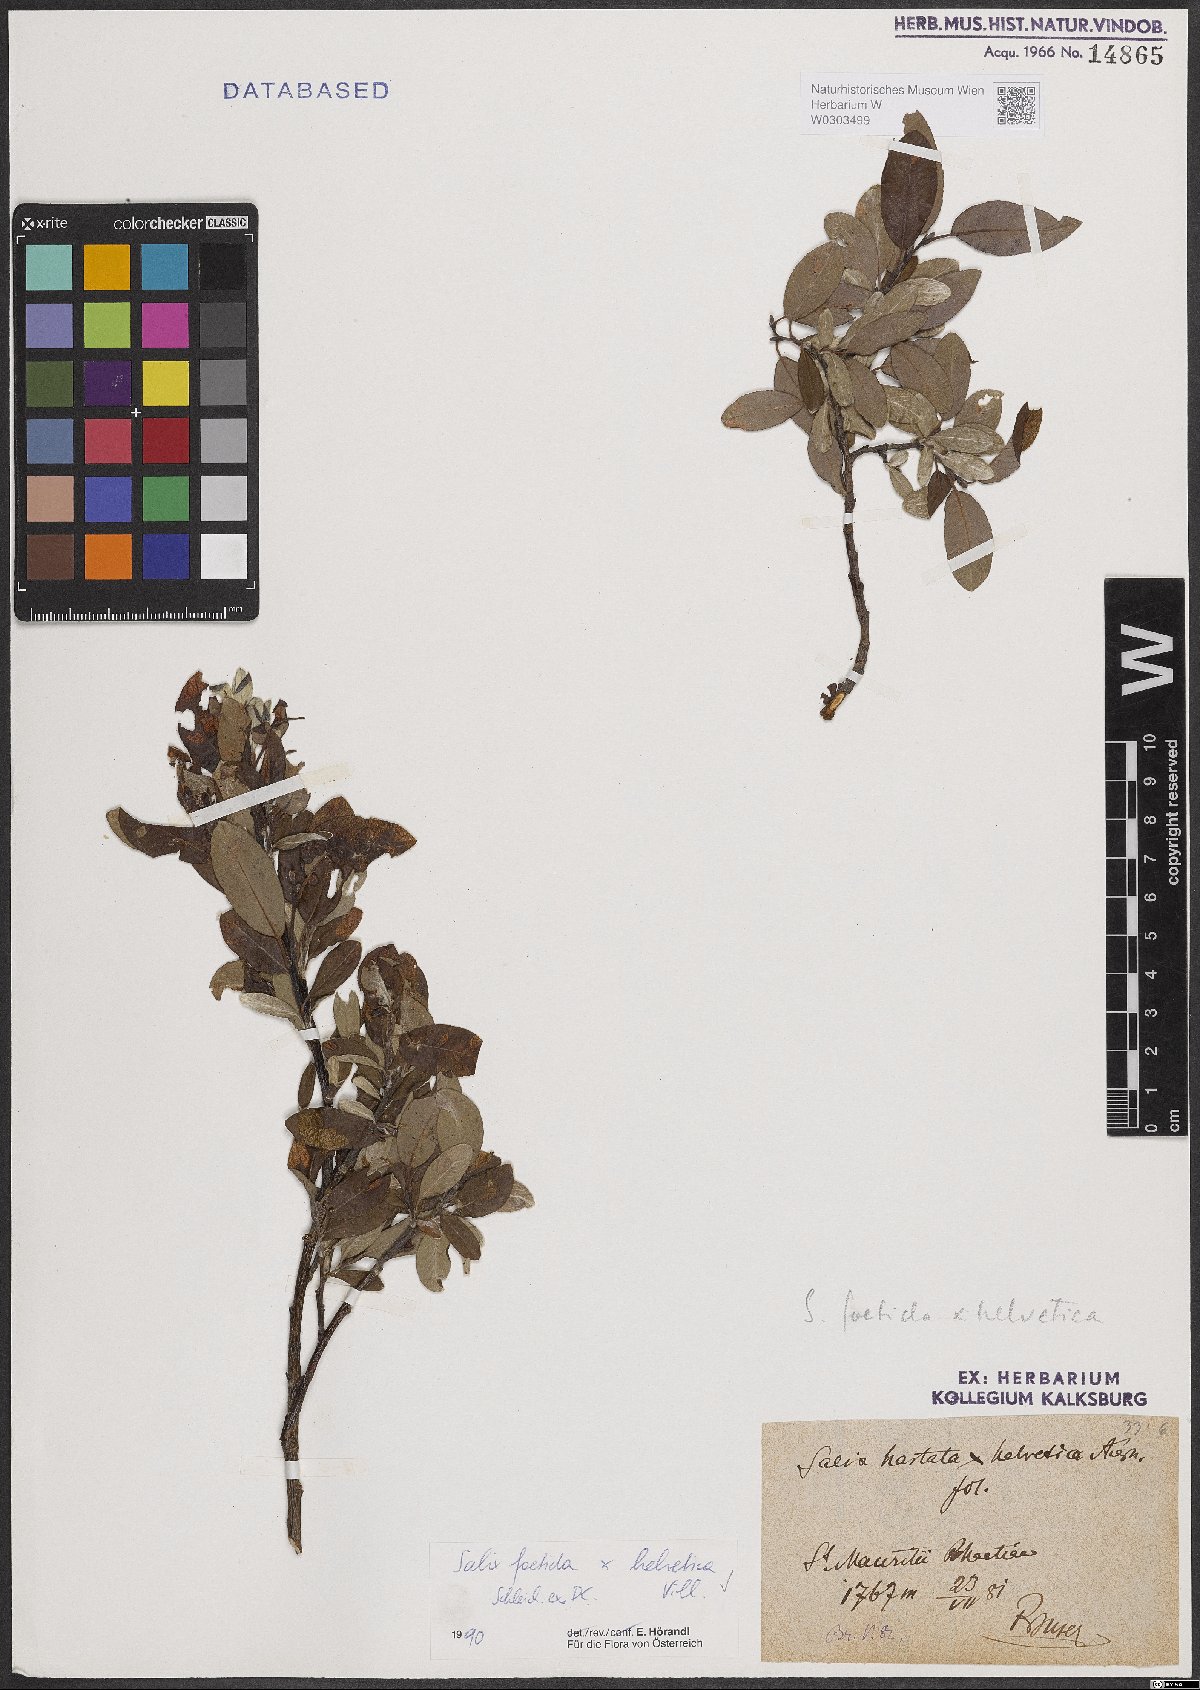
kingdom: Plantae
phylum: Tracheophyta
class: Magnoliopsida
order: Malpighiales
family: Salicaceae
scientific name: Salicaceae
